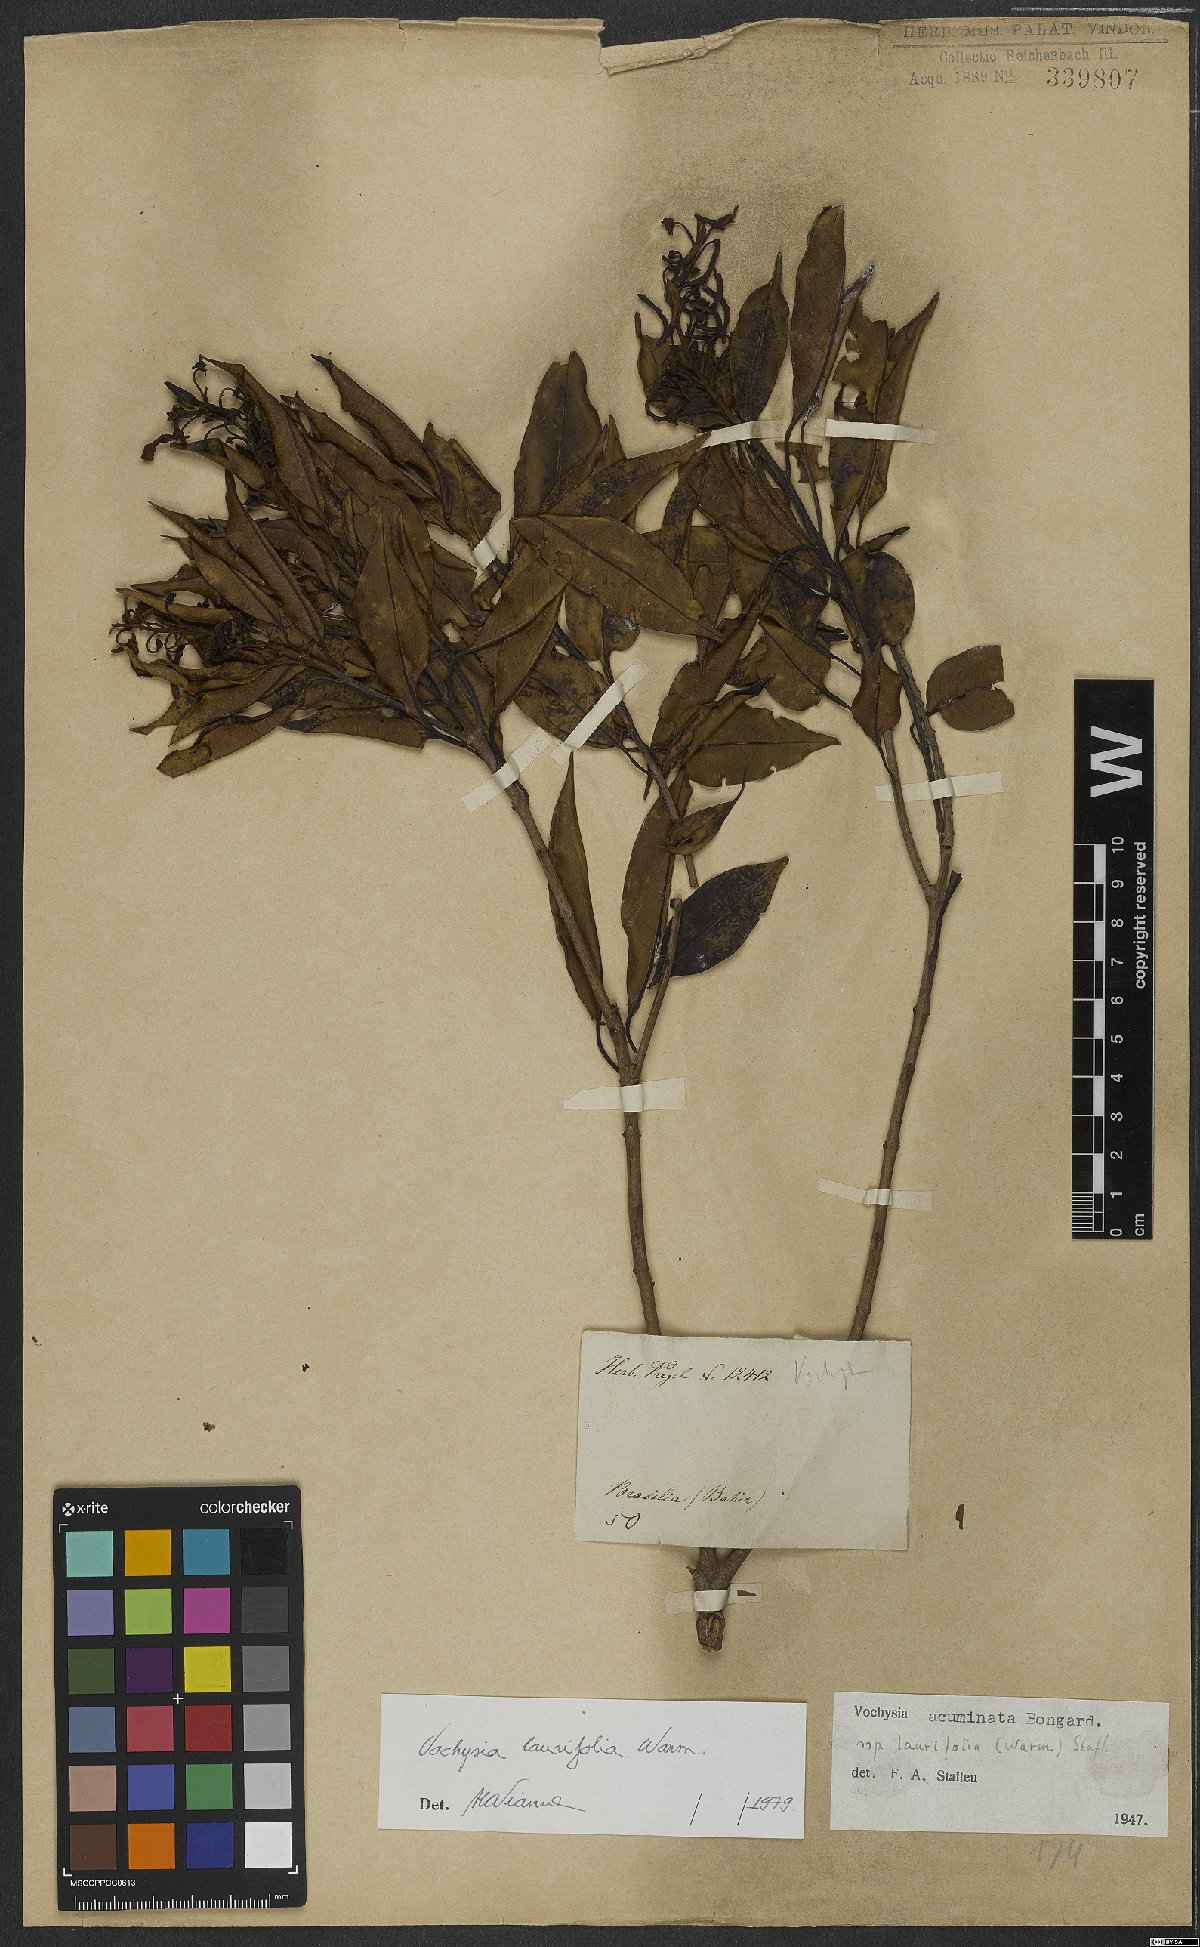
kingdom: Plantae
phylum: Tracheophyta
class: Magnoliopsida
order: Myrtales
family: Vochysiaceae
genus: Vochysia
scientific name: Vochysia laurifolia
